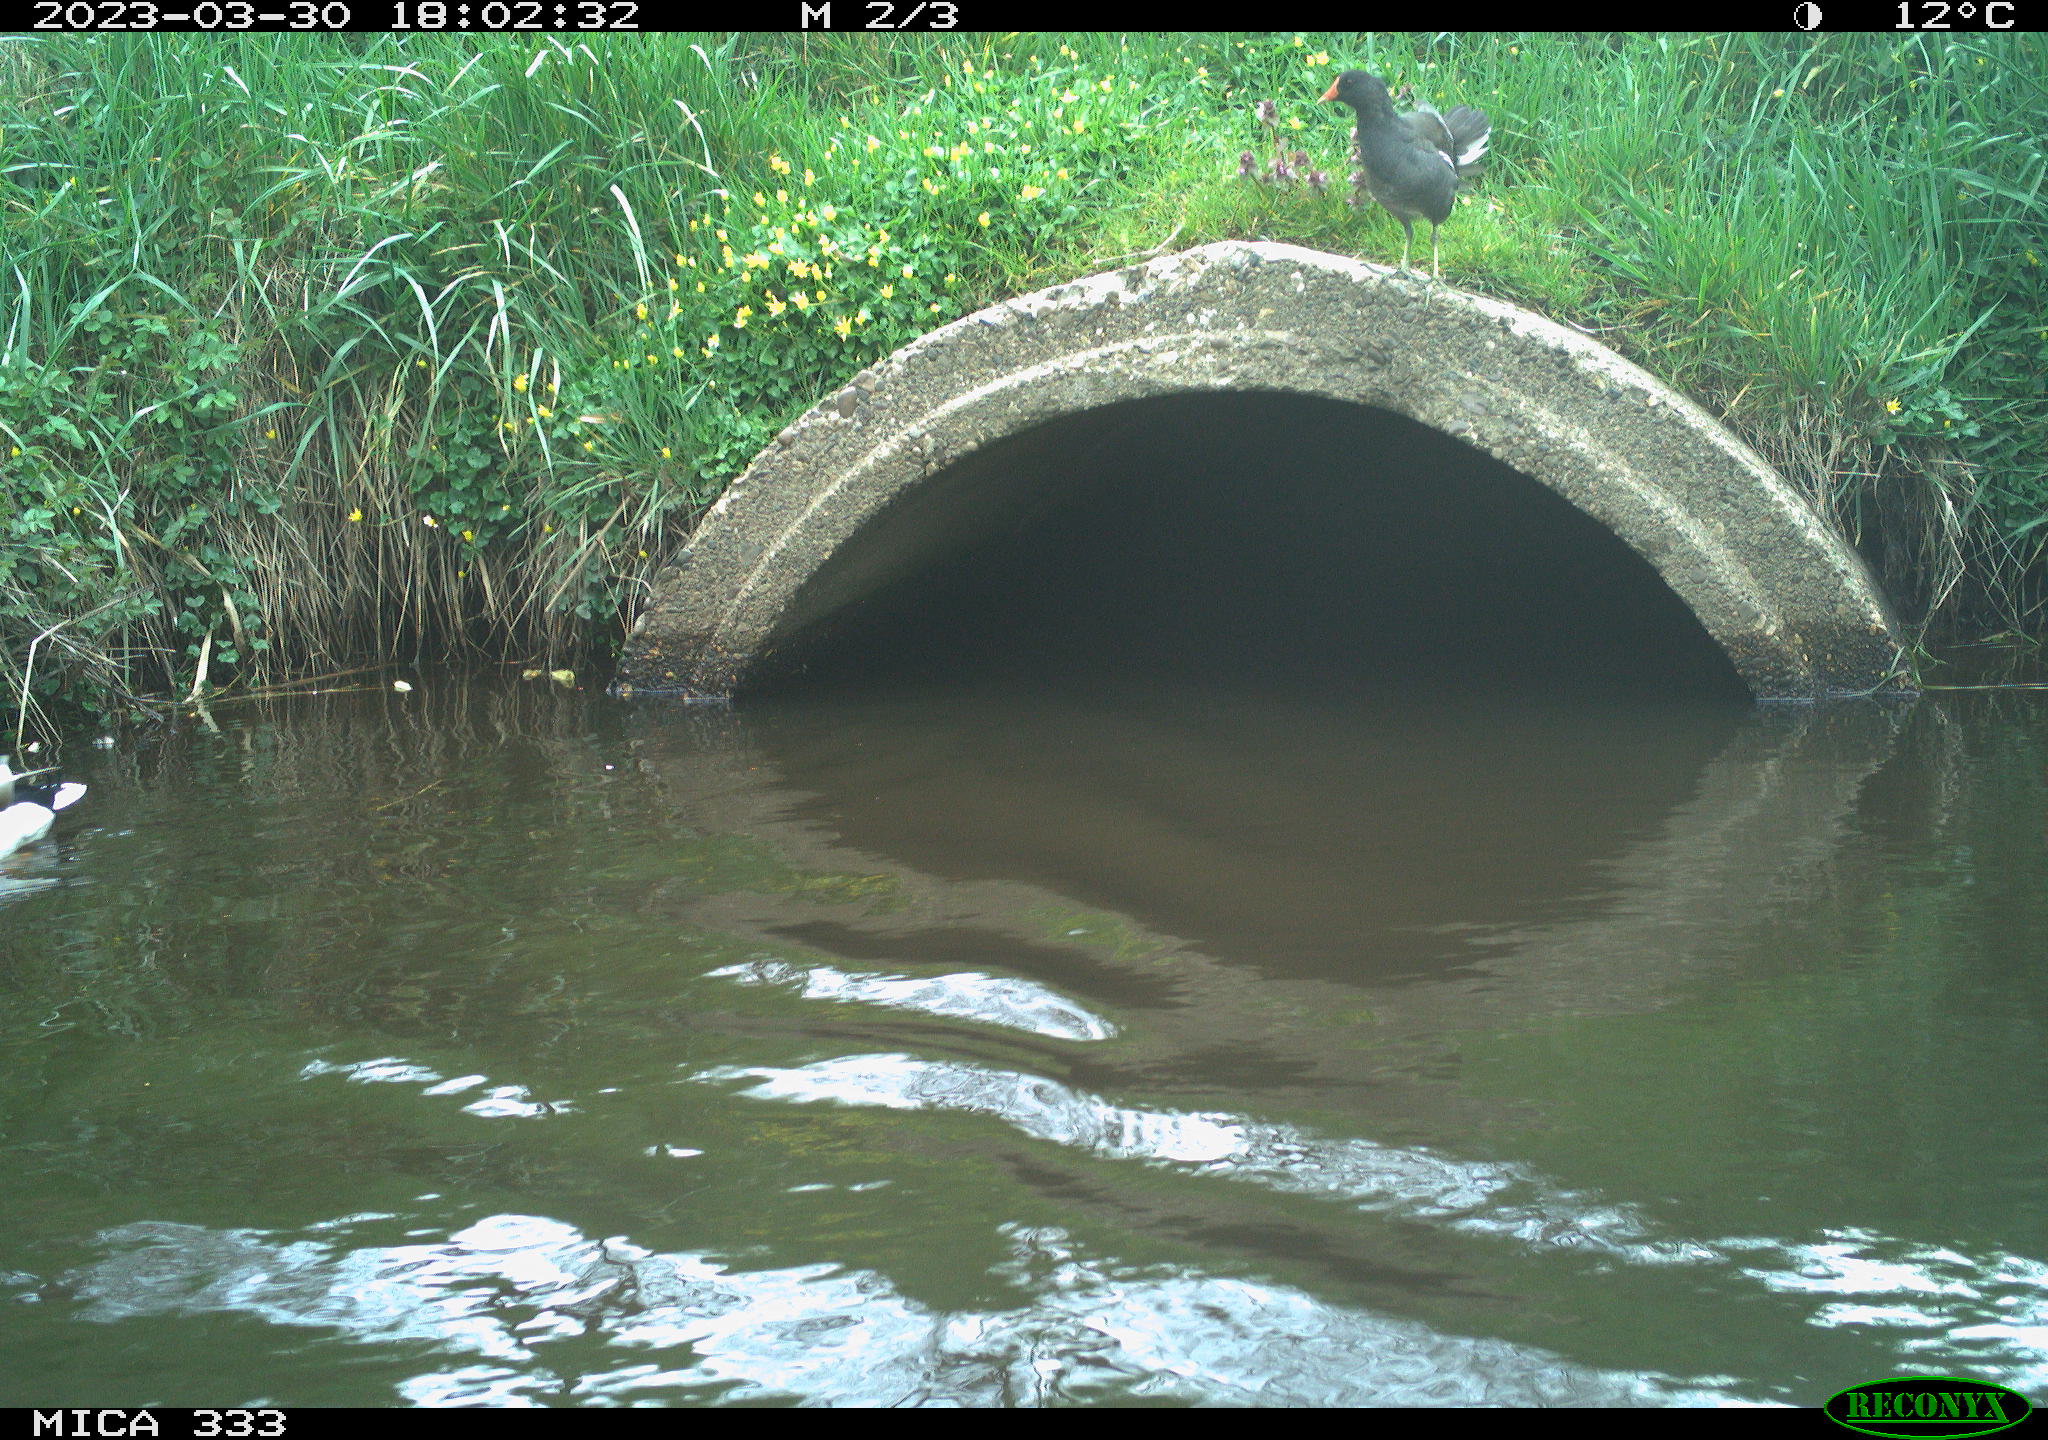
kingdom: Animalia
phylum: Chordata
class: Aves
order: Anseriformes
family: Anatidae
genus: Anas
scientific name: Anas platyrhynchos
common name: Mallard
